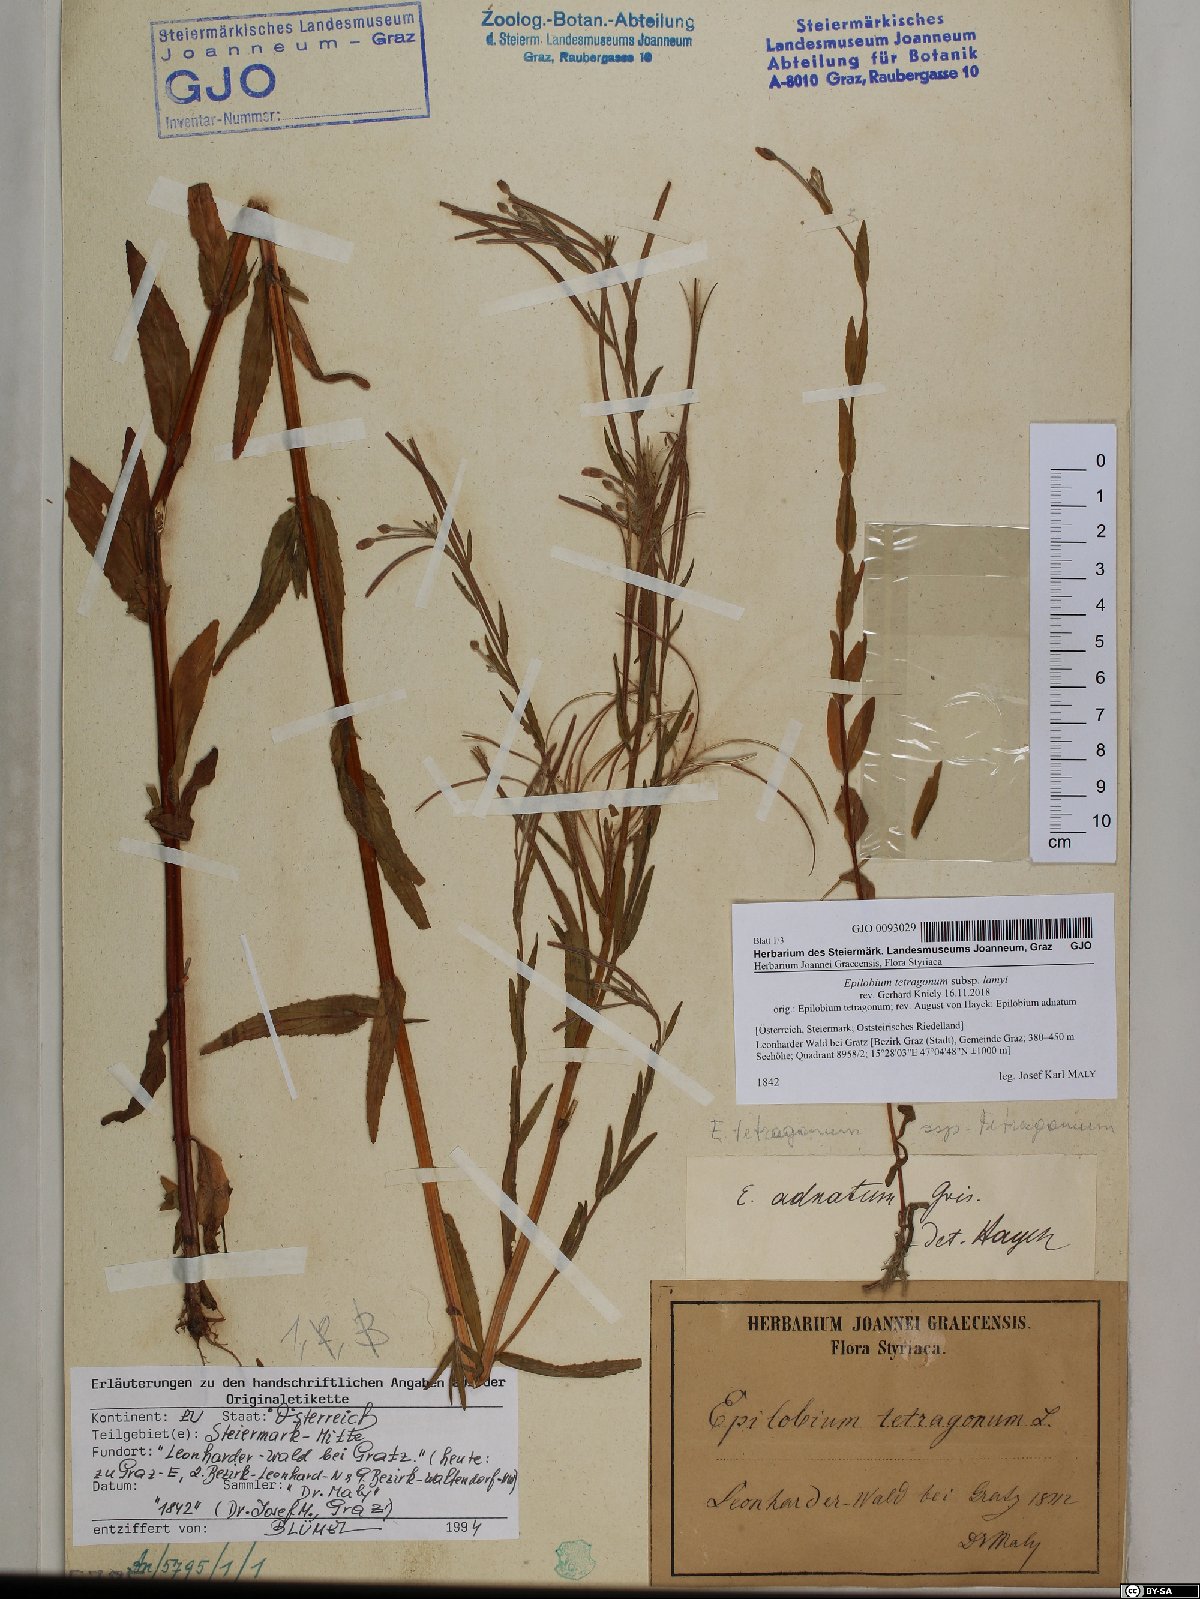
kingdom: Plantae
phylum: Tracheophyta
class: Magnoliopsida
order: Myrtales
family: Onagraceae
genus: Epilobium
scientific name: Epilobium lamyi
